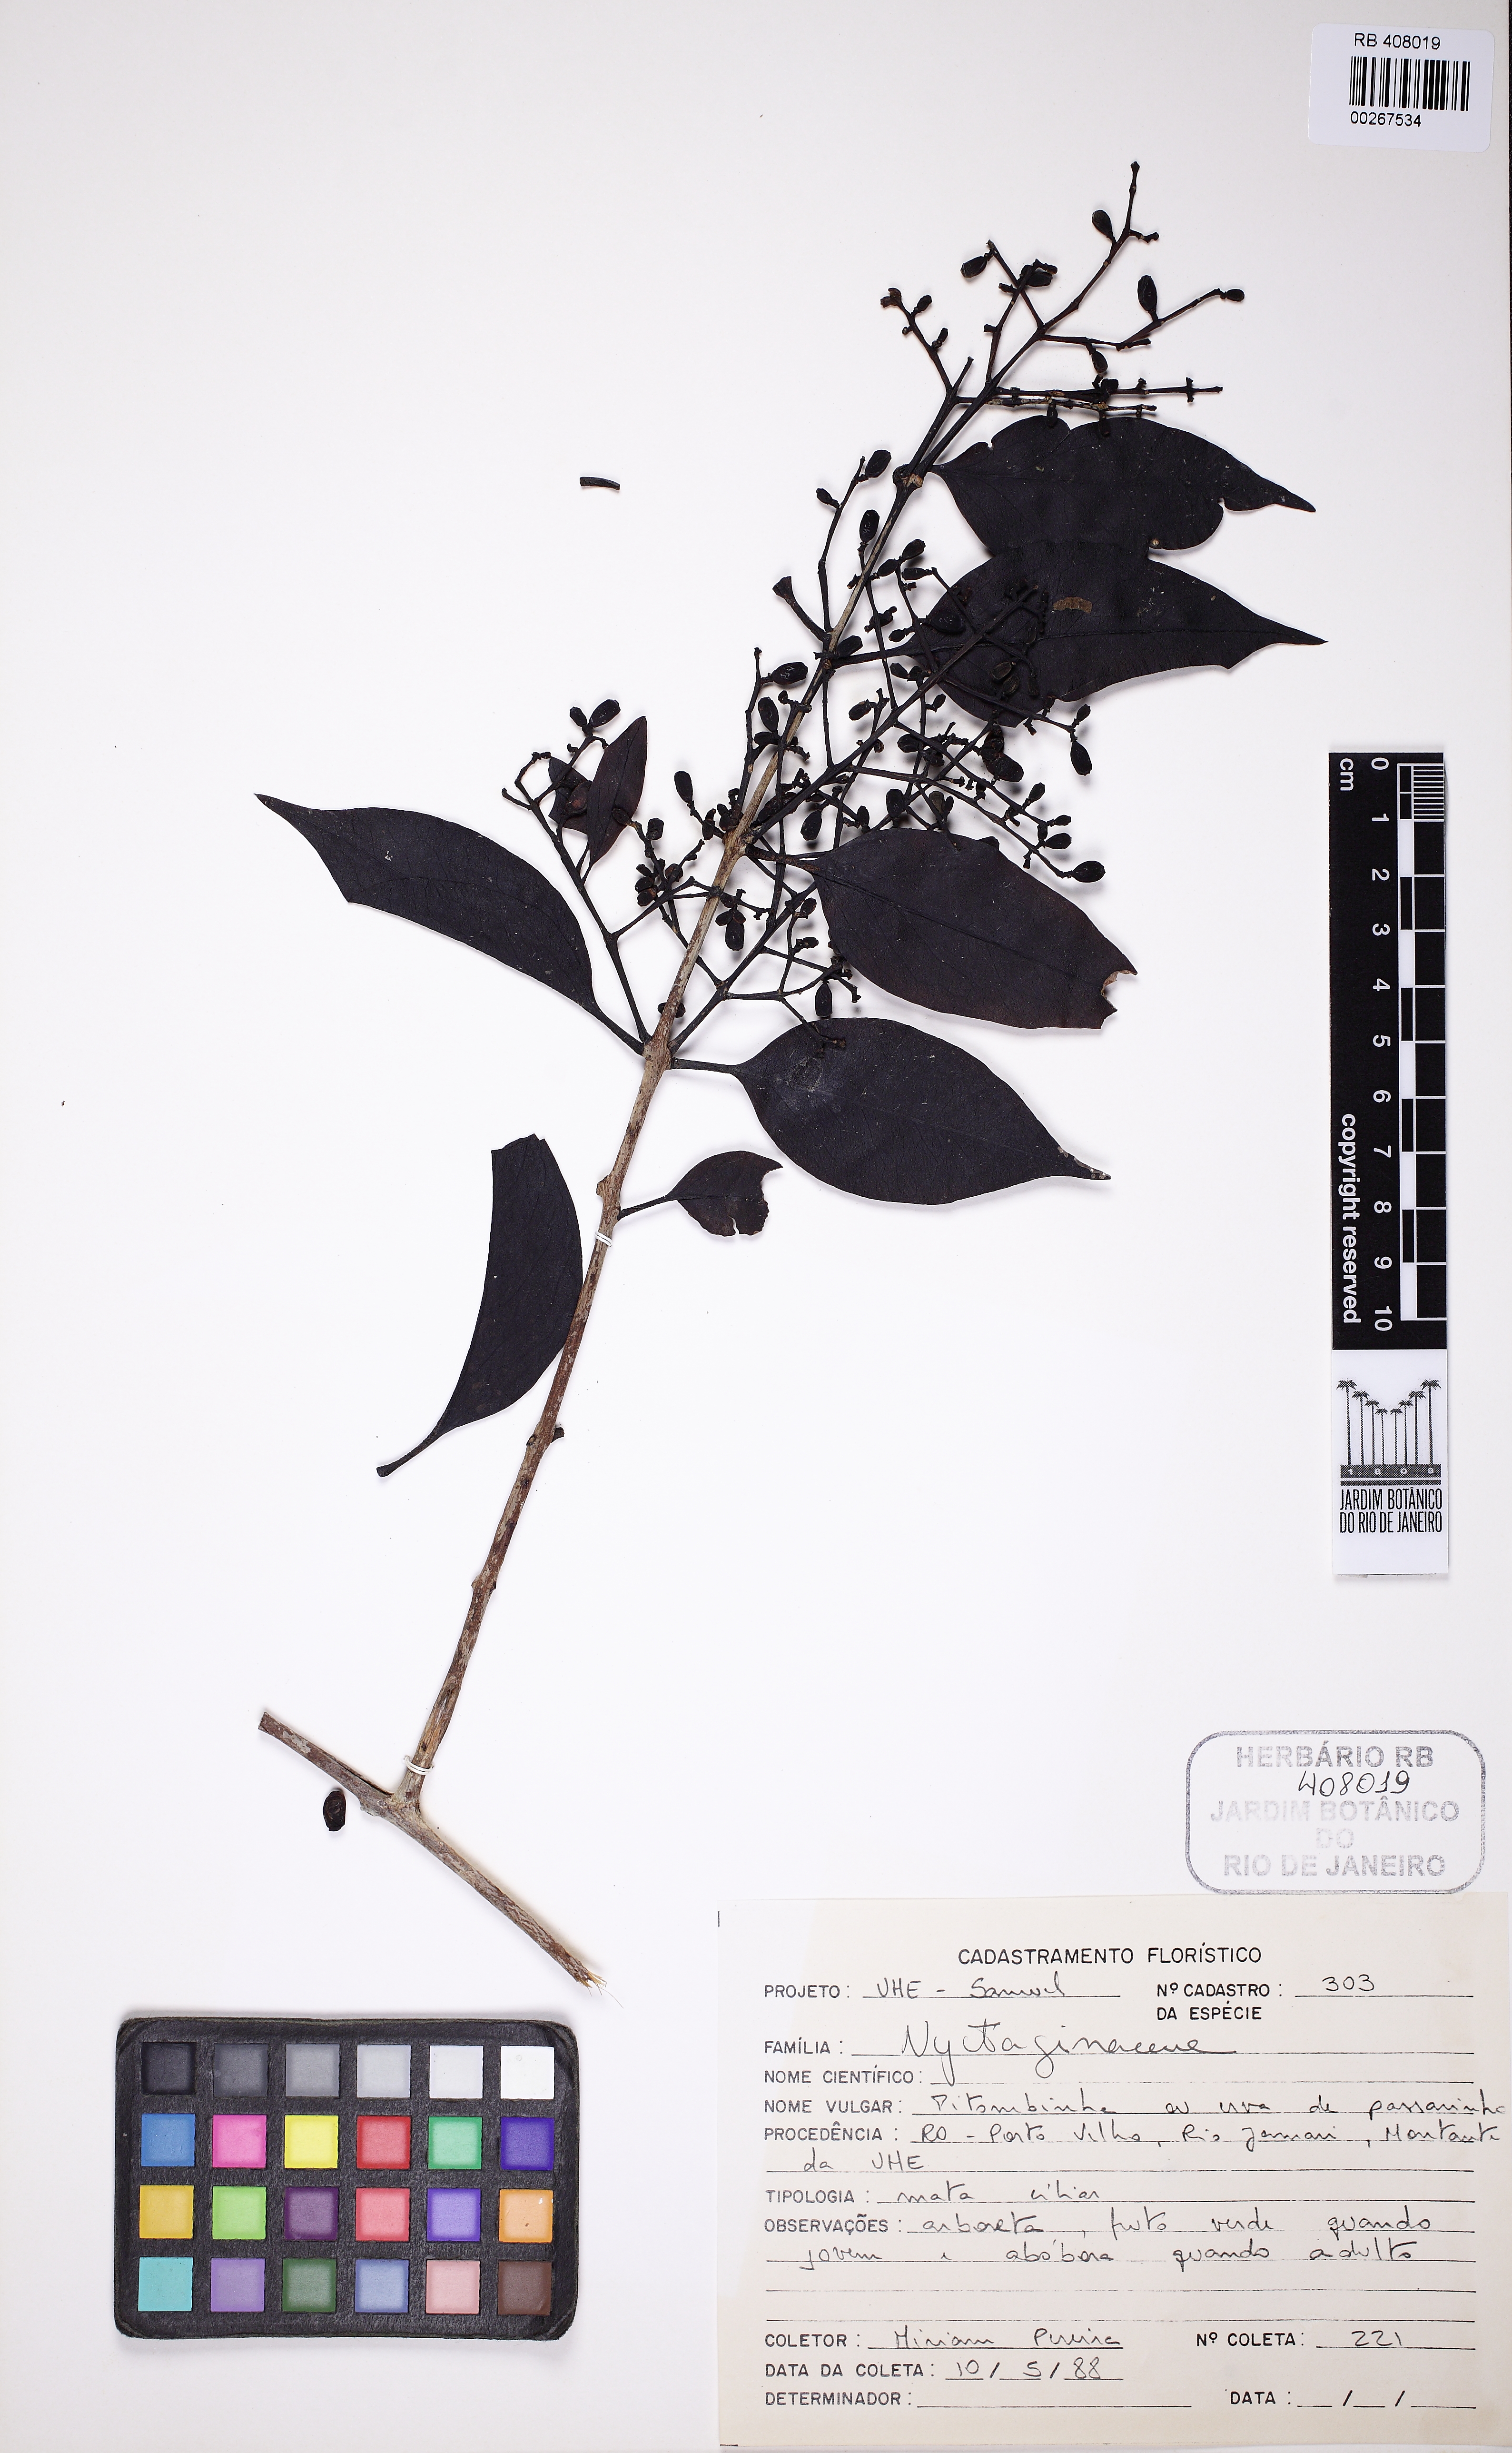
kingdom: Plantae
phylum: Tracheophyta
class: Magnoliopsida
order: Santalales
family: Loranthaceae
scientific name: Loranthaceae
